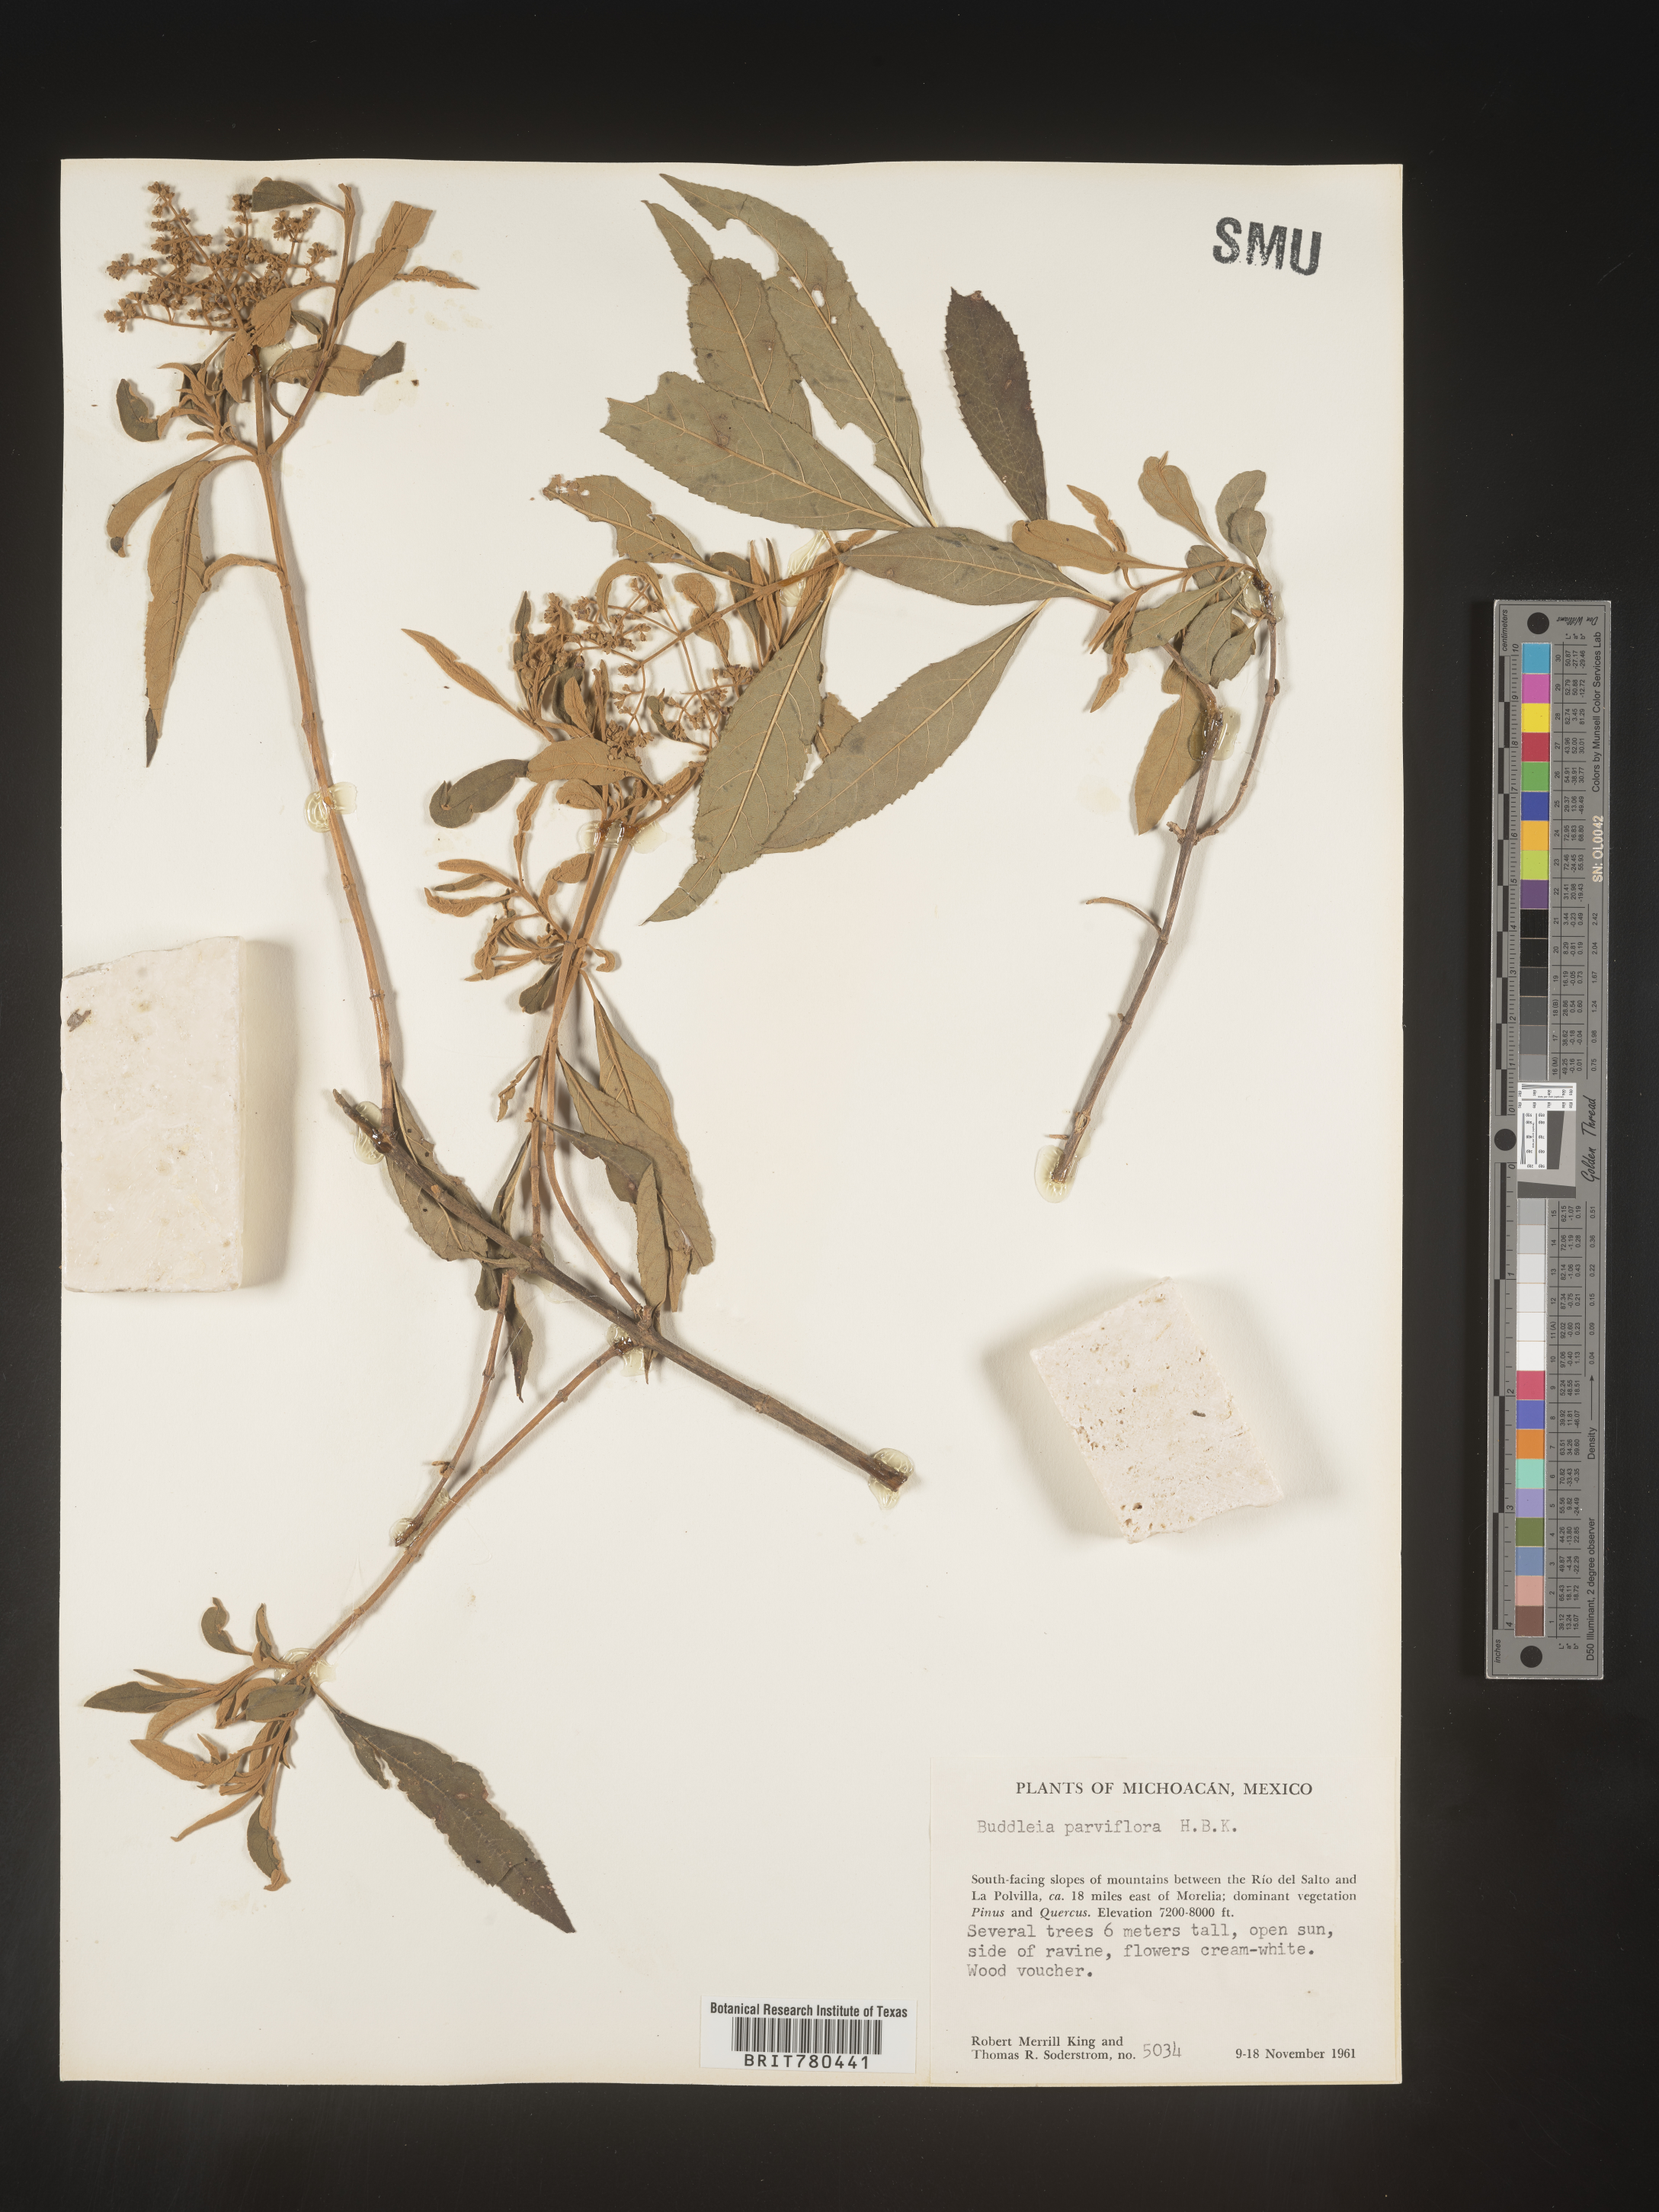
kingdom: Plantae
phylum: Tracheophyta
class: Magnoliopsida
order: Lamiales
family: Scrophulariaceae
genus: Buddleja
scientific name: Buddleja parviflora
